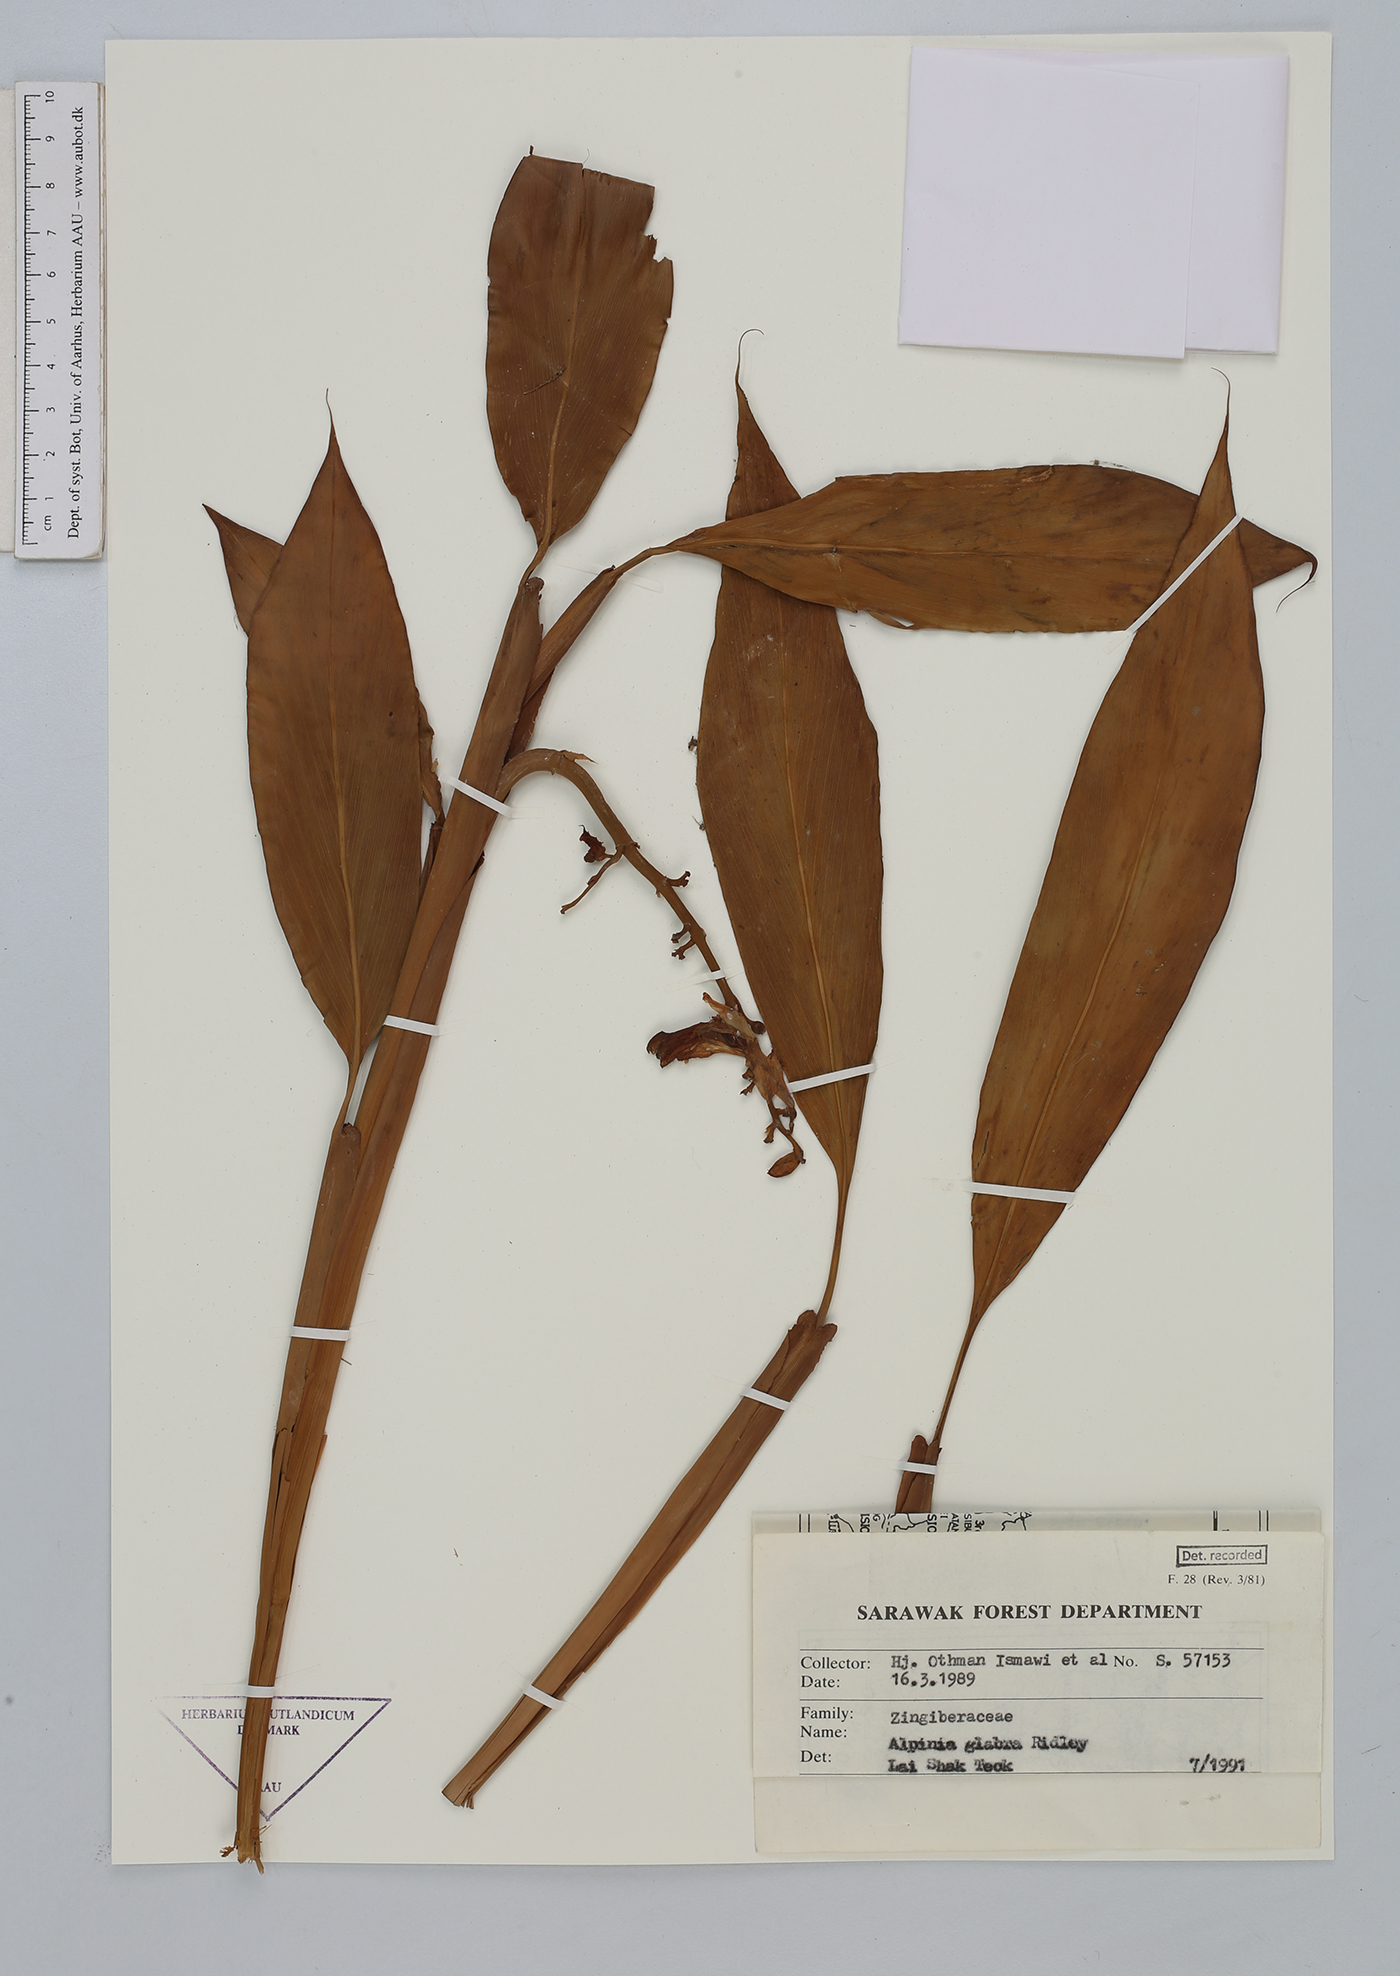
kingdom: Plantae
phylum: Tracheophyta
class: Liliopsida
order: Zingiberales
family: Zingiberaceae
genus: Alpinia
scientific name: Alpinia glabra
